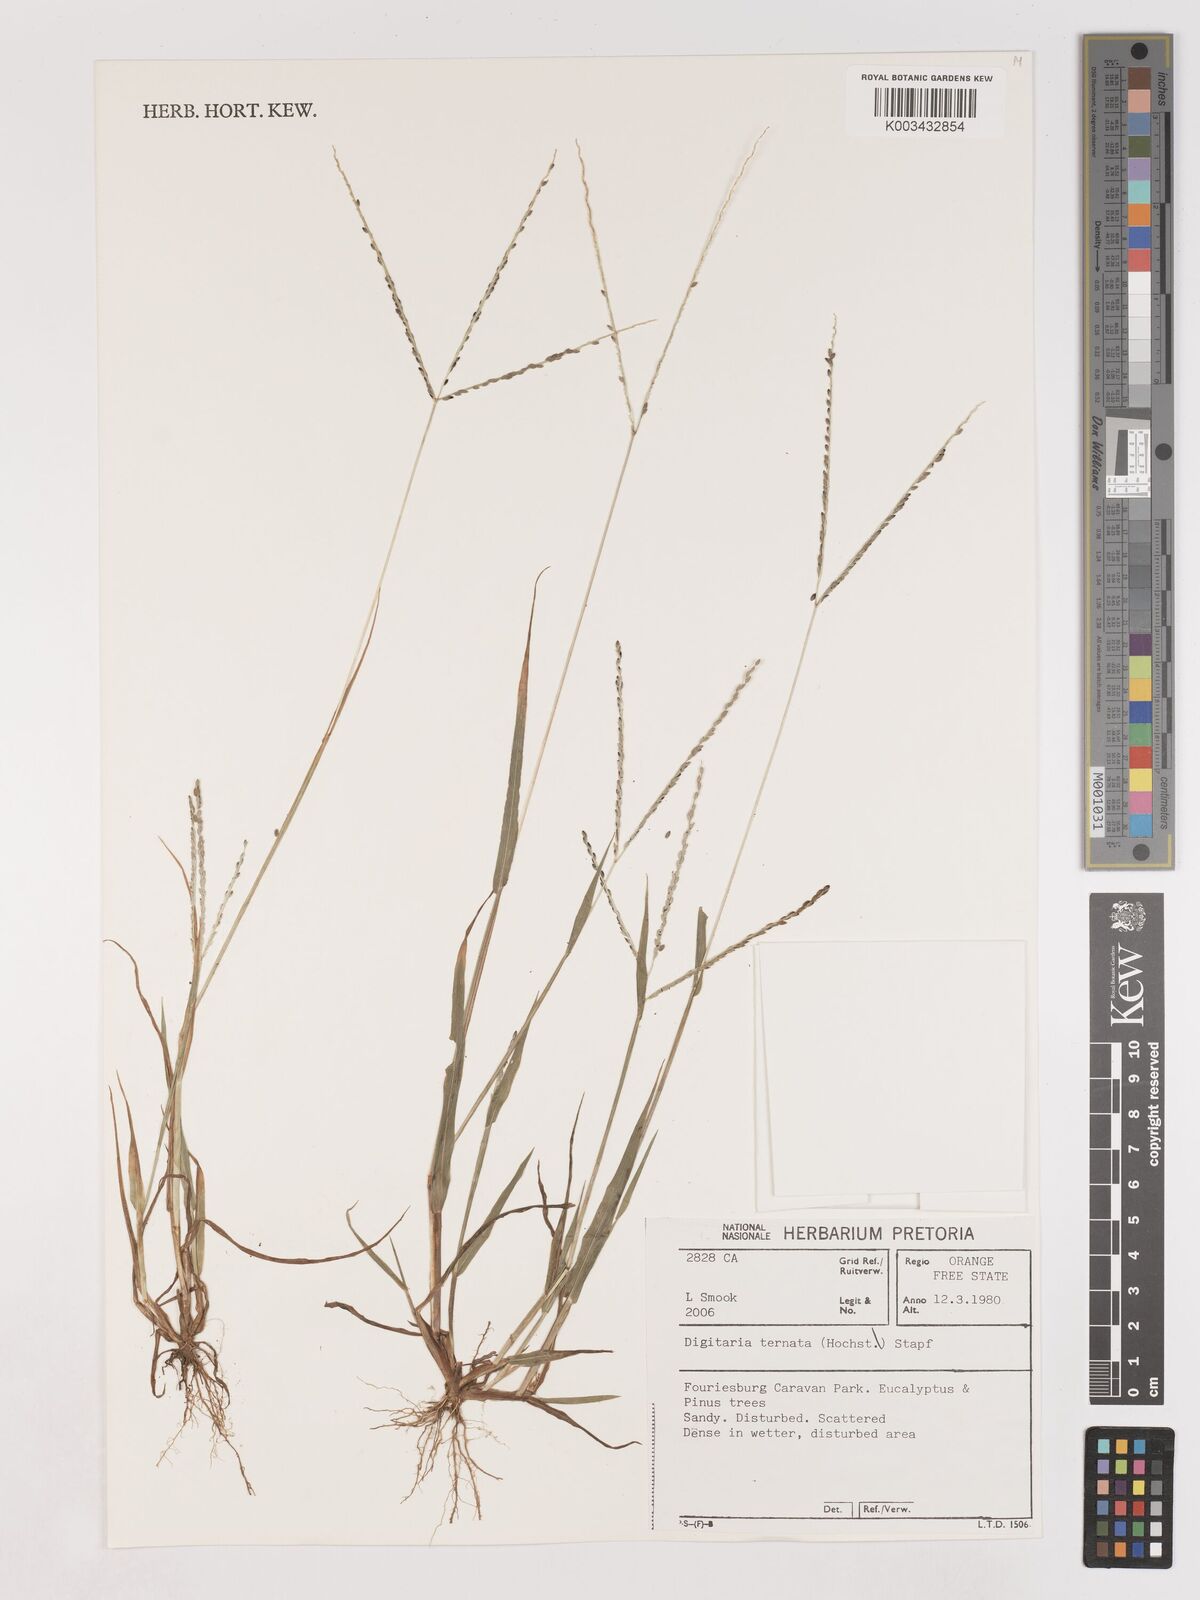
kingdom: Plantae
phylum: Tracheophyta
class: Liliopsida
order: Poales
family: Poaceae
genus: Digitaria
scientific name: Digitaria ternata
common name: Blackseed crabgrass
